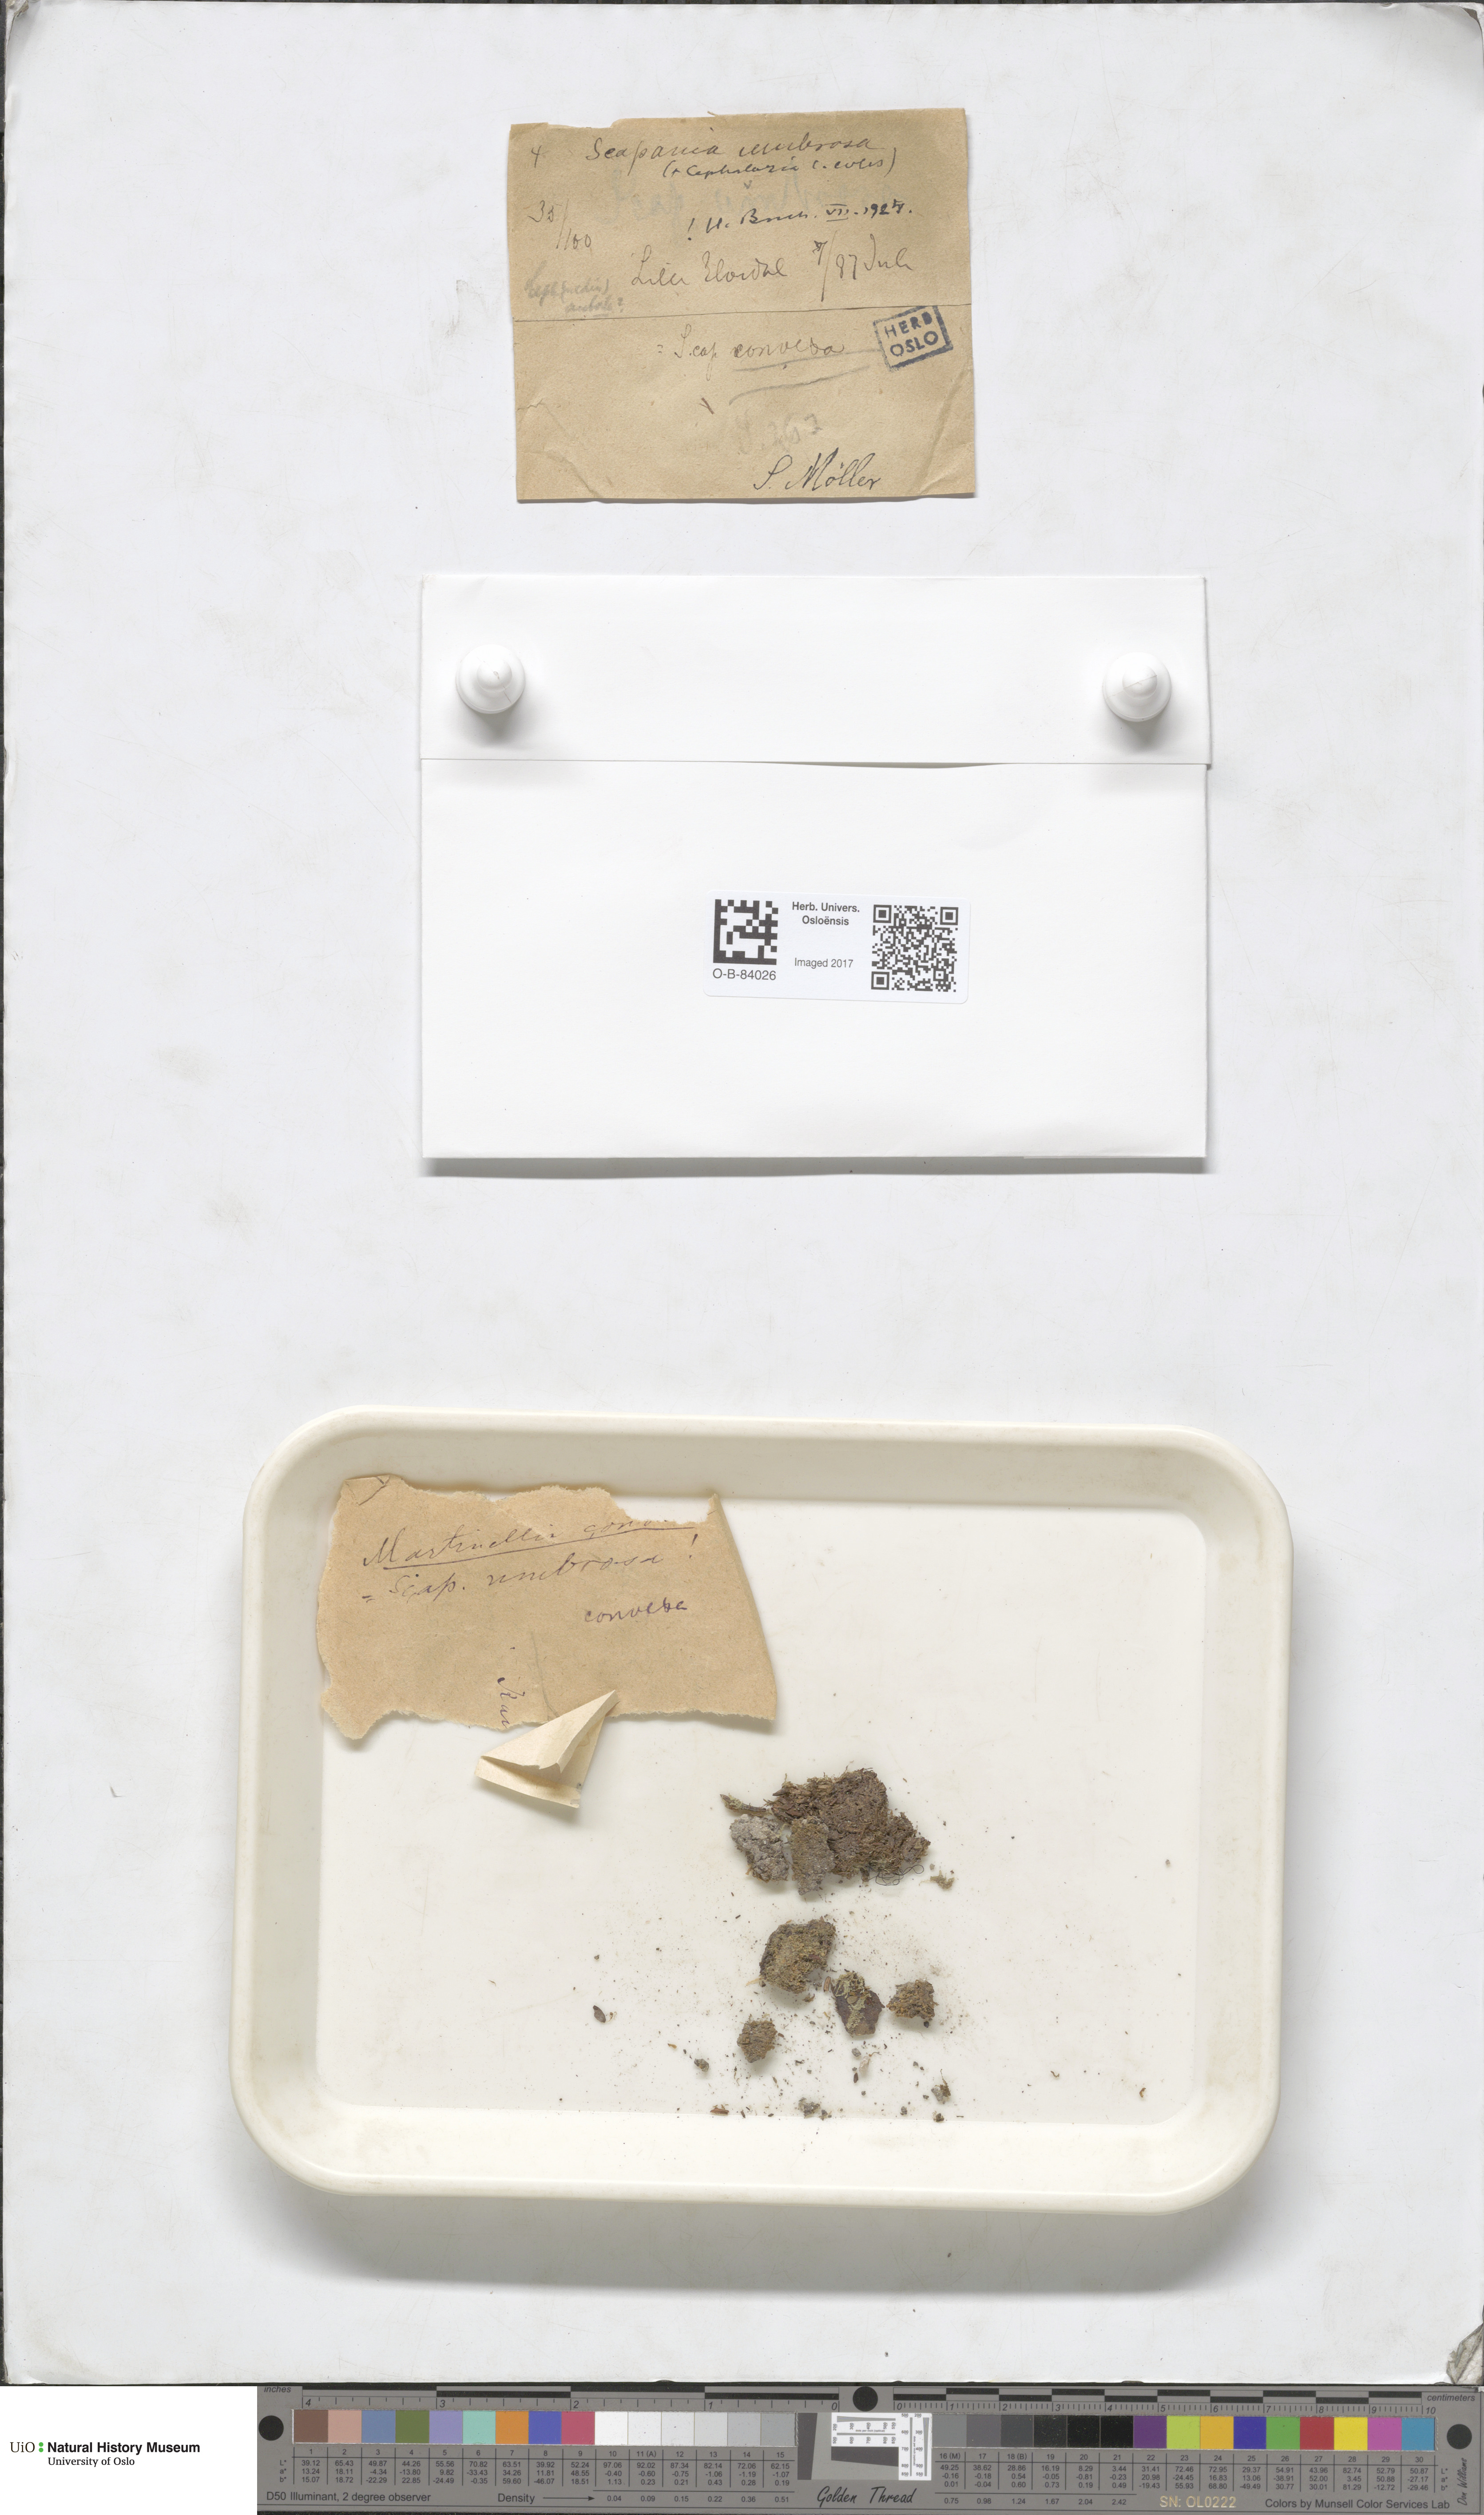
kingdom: Plantae
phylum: Marchantiophyta
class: Jungermanniopsida
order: Jungermanniales
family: Scapaniaceae
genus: Scapania
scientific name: Scapania umbrosa
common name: Shady earwort
